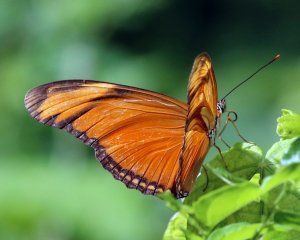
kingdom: Animalia
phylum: Arthropoda
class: Insecta
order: Lepidoptera
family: Nymphalidae
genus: Dryas
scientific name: Dryas iulia
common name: Julia
